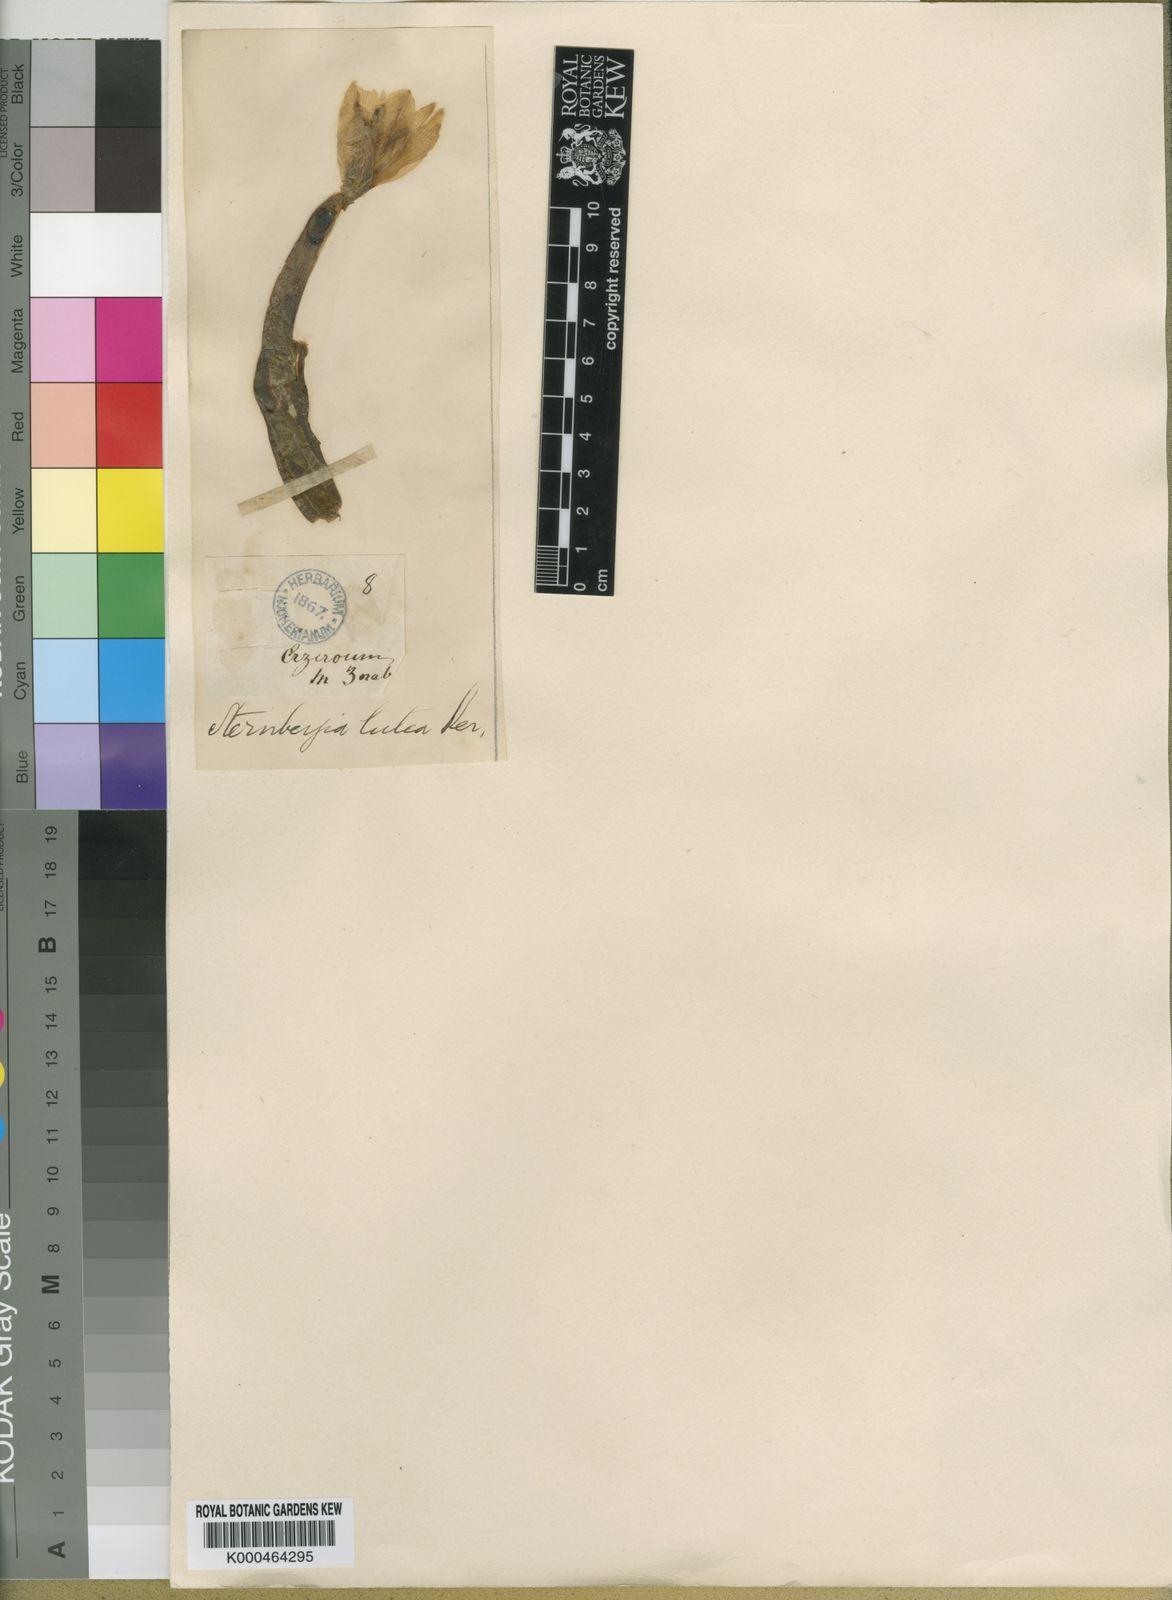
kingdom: Plantae
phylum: Tracheophyta
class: Liliopsida
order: Asparagales
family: Amaryllidaceae
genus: Sternbergia
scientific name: Sternbergia
